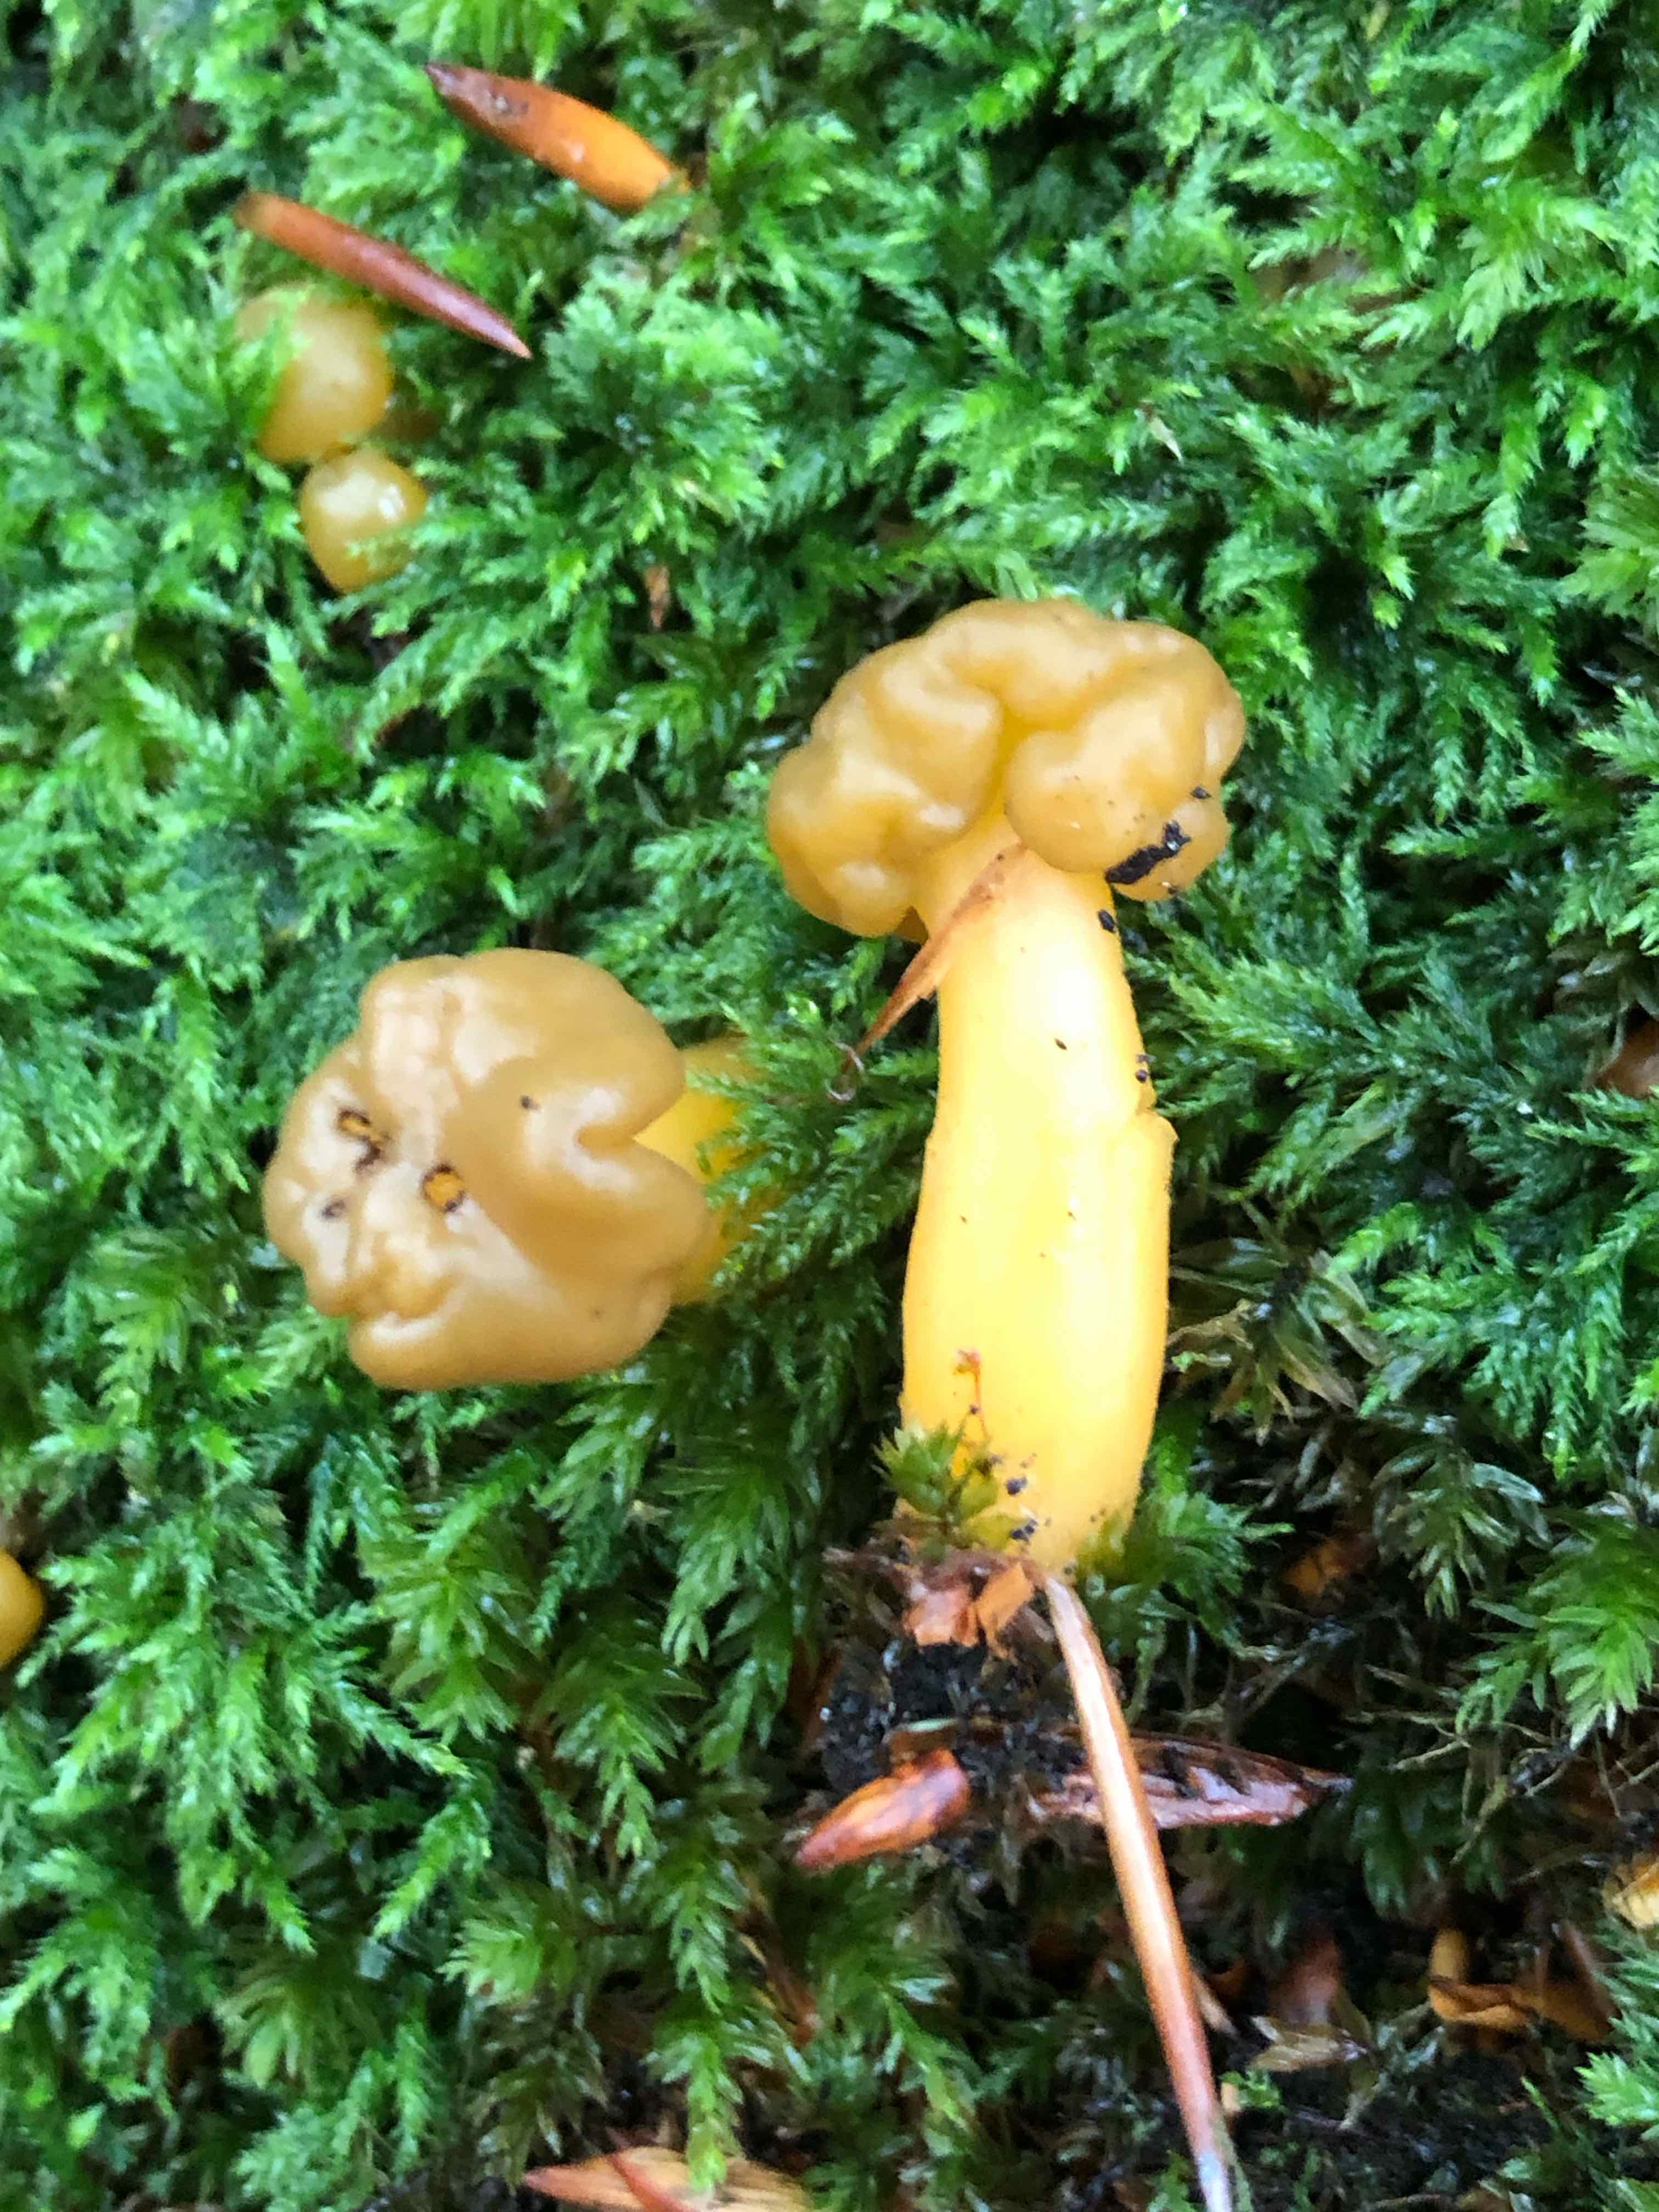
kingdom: Fungi
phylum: Ascomycota
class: Leotiomycetes
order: Leotiales
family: Leotiaceae
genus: Leotia
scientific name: Leotia lubrica
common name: ravsvamp
